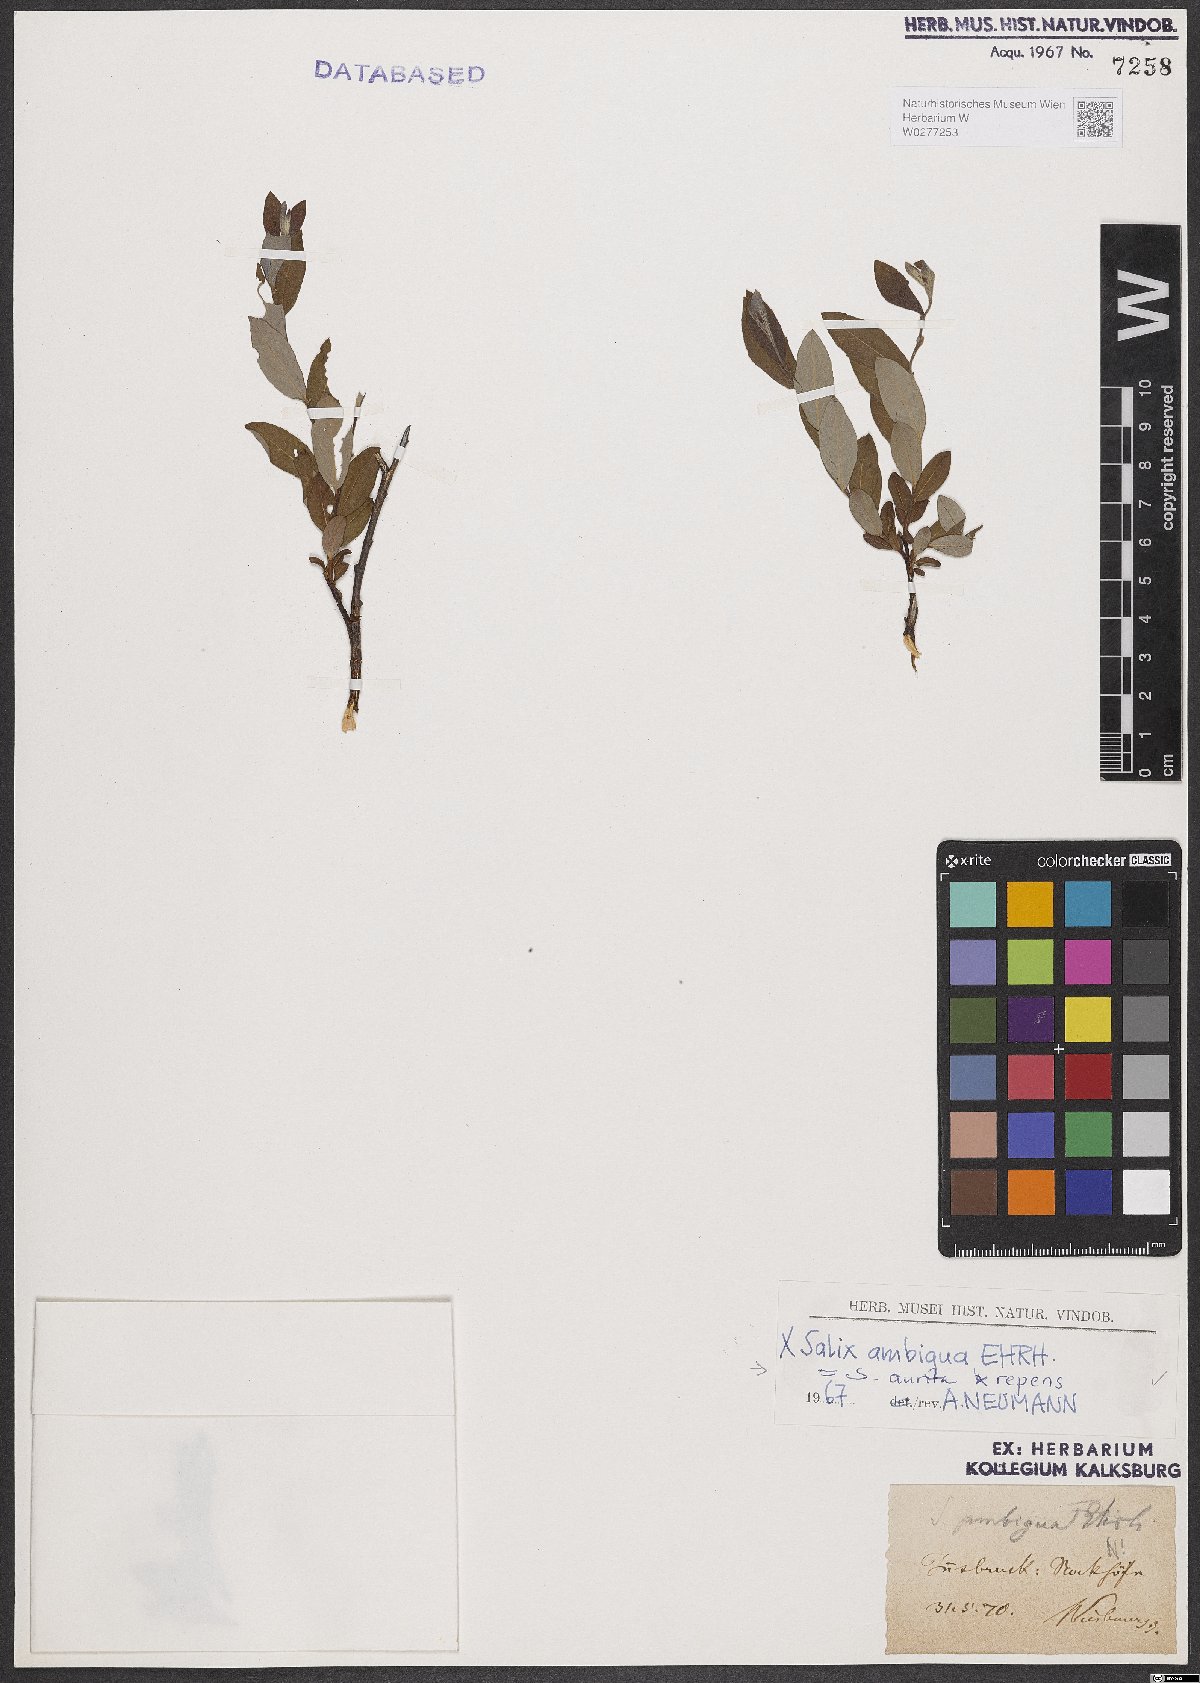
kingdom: Plantae
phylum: Tracheophyta
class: Magnoliopsida
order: Malpighiales
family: Salicaceae
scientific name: Salicaceae
